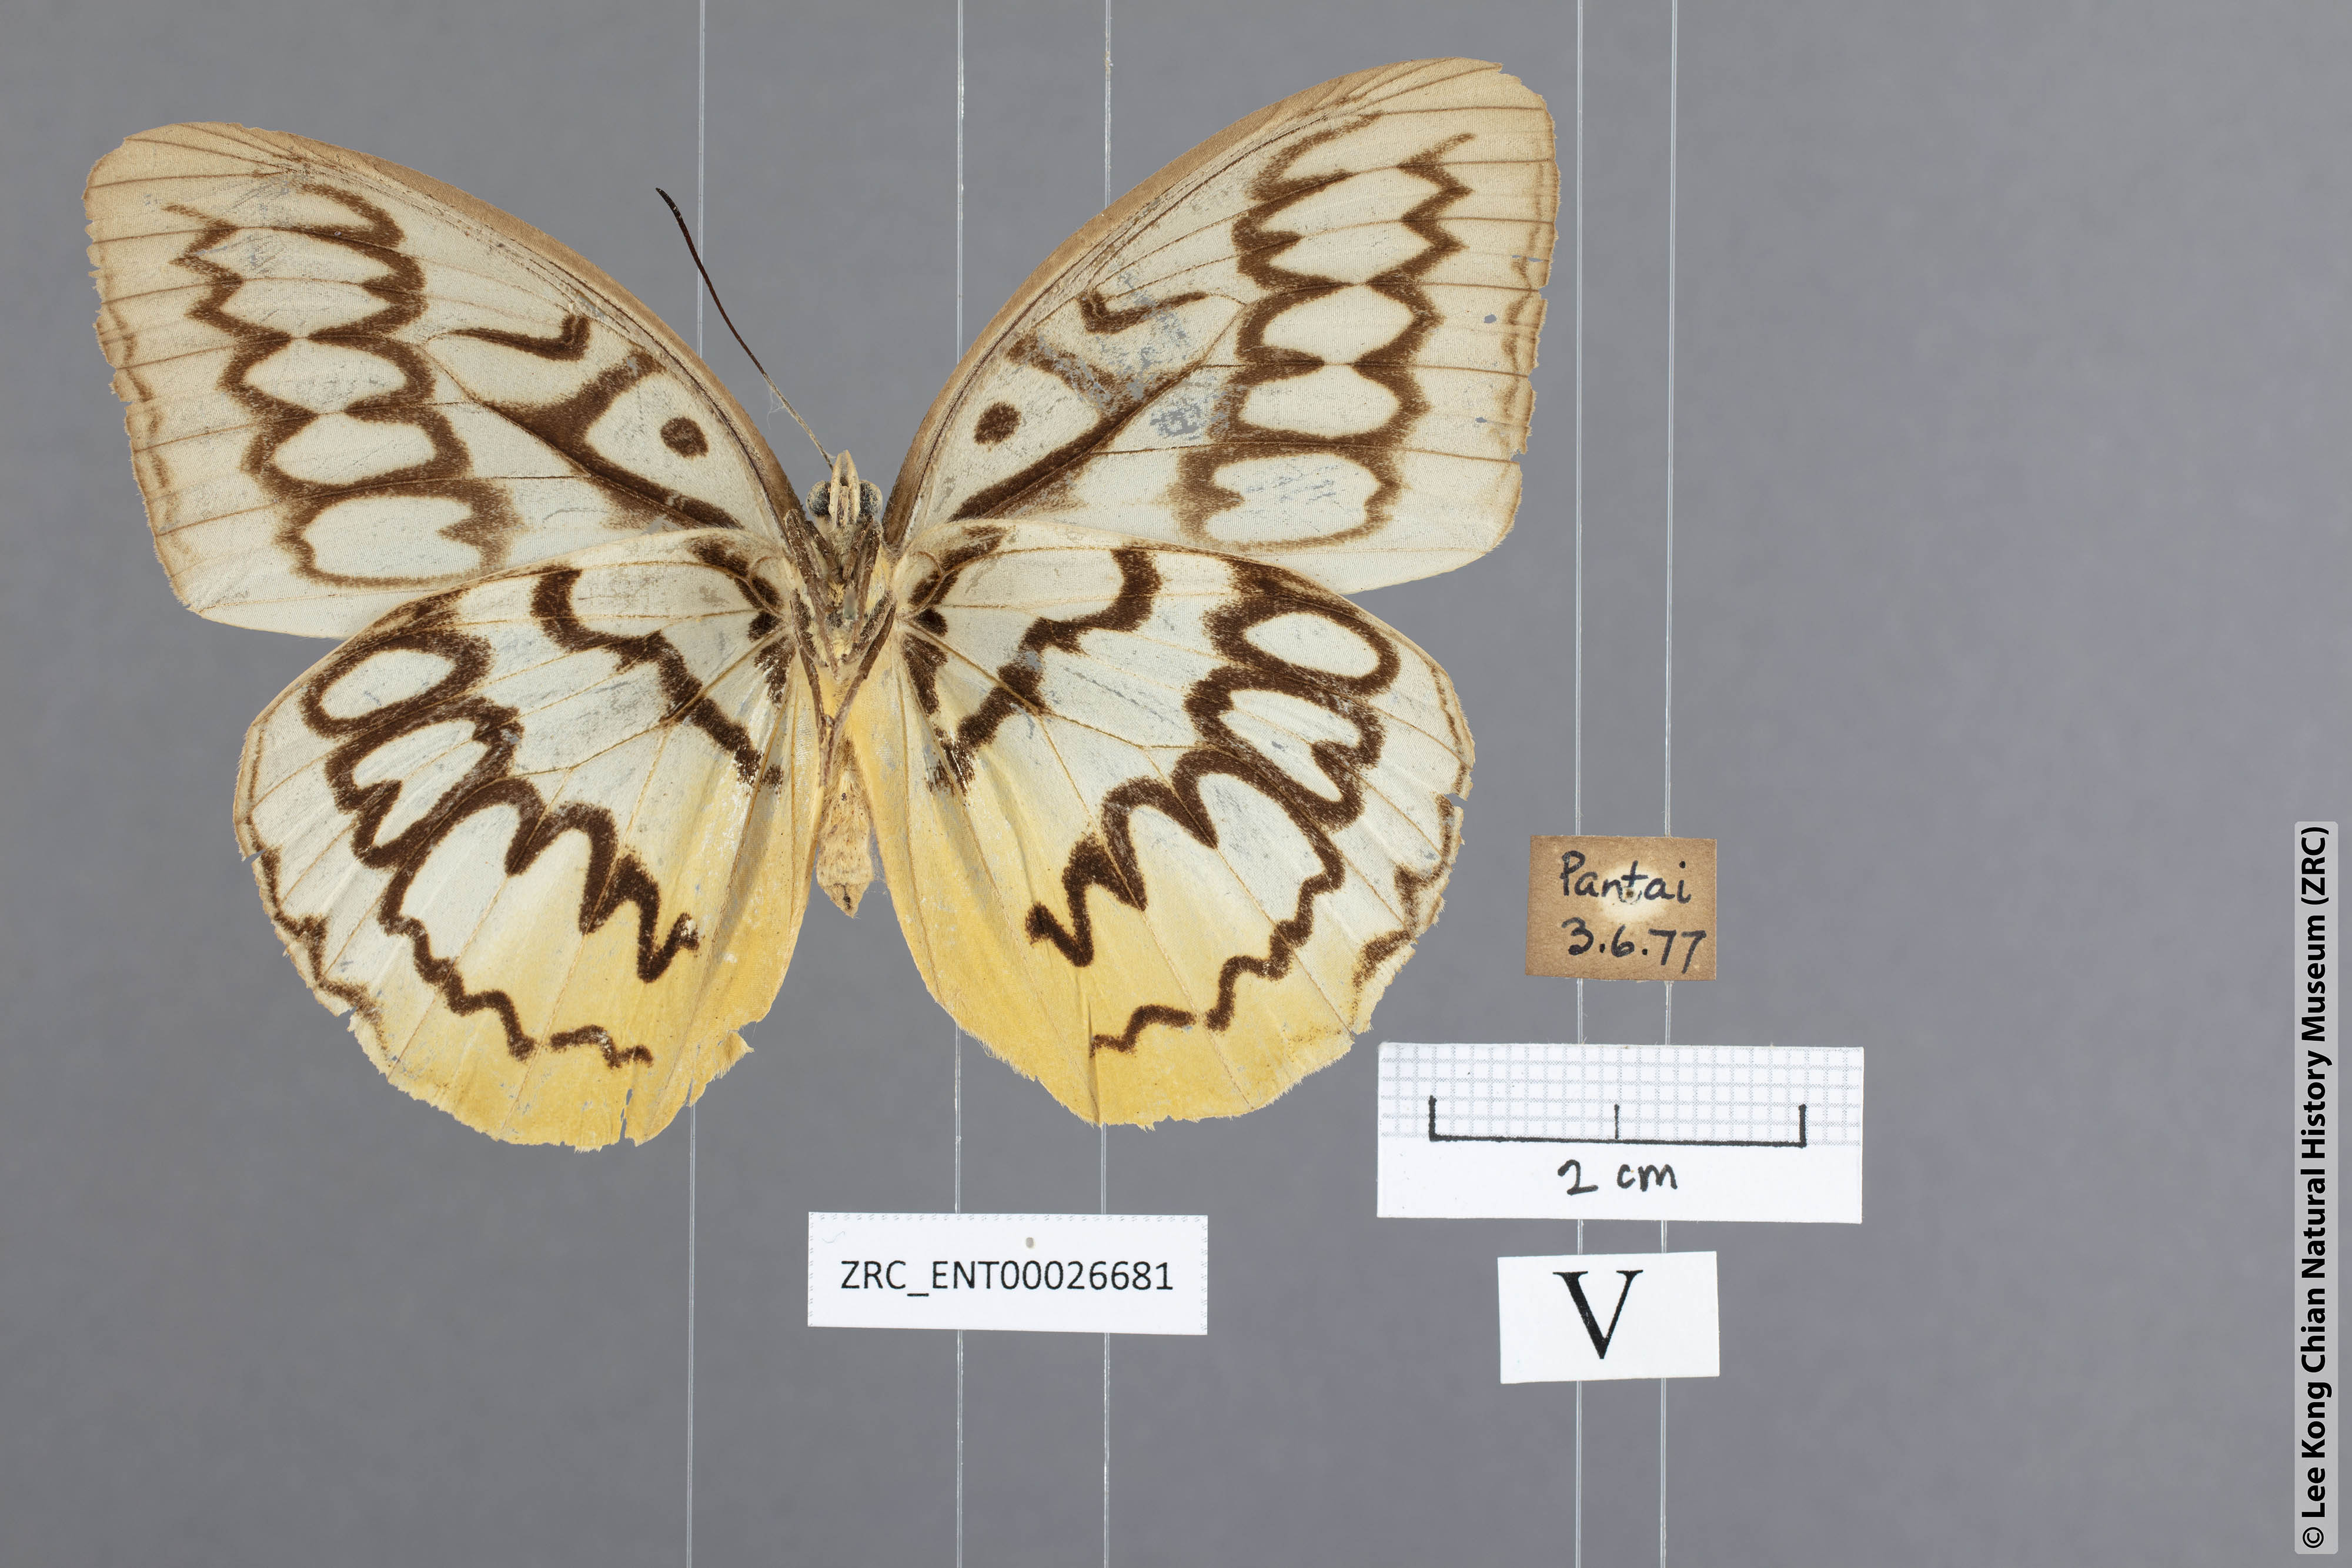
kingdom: Animalia
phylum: Arthropoda
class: Insecta
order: Lepidoptera
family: Nymphalidae
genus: Faunis
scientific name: Faunis Melanocyma faunula
